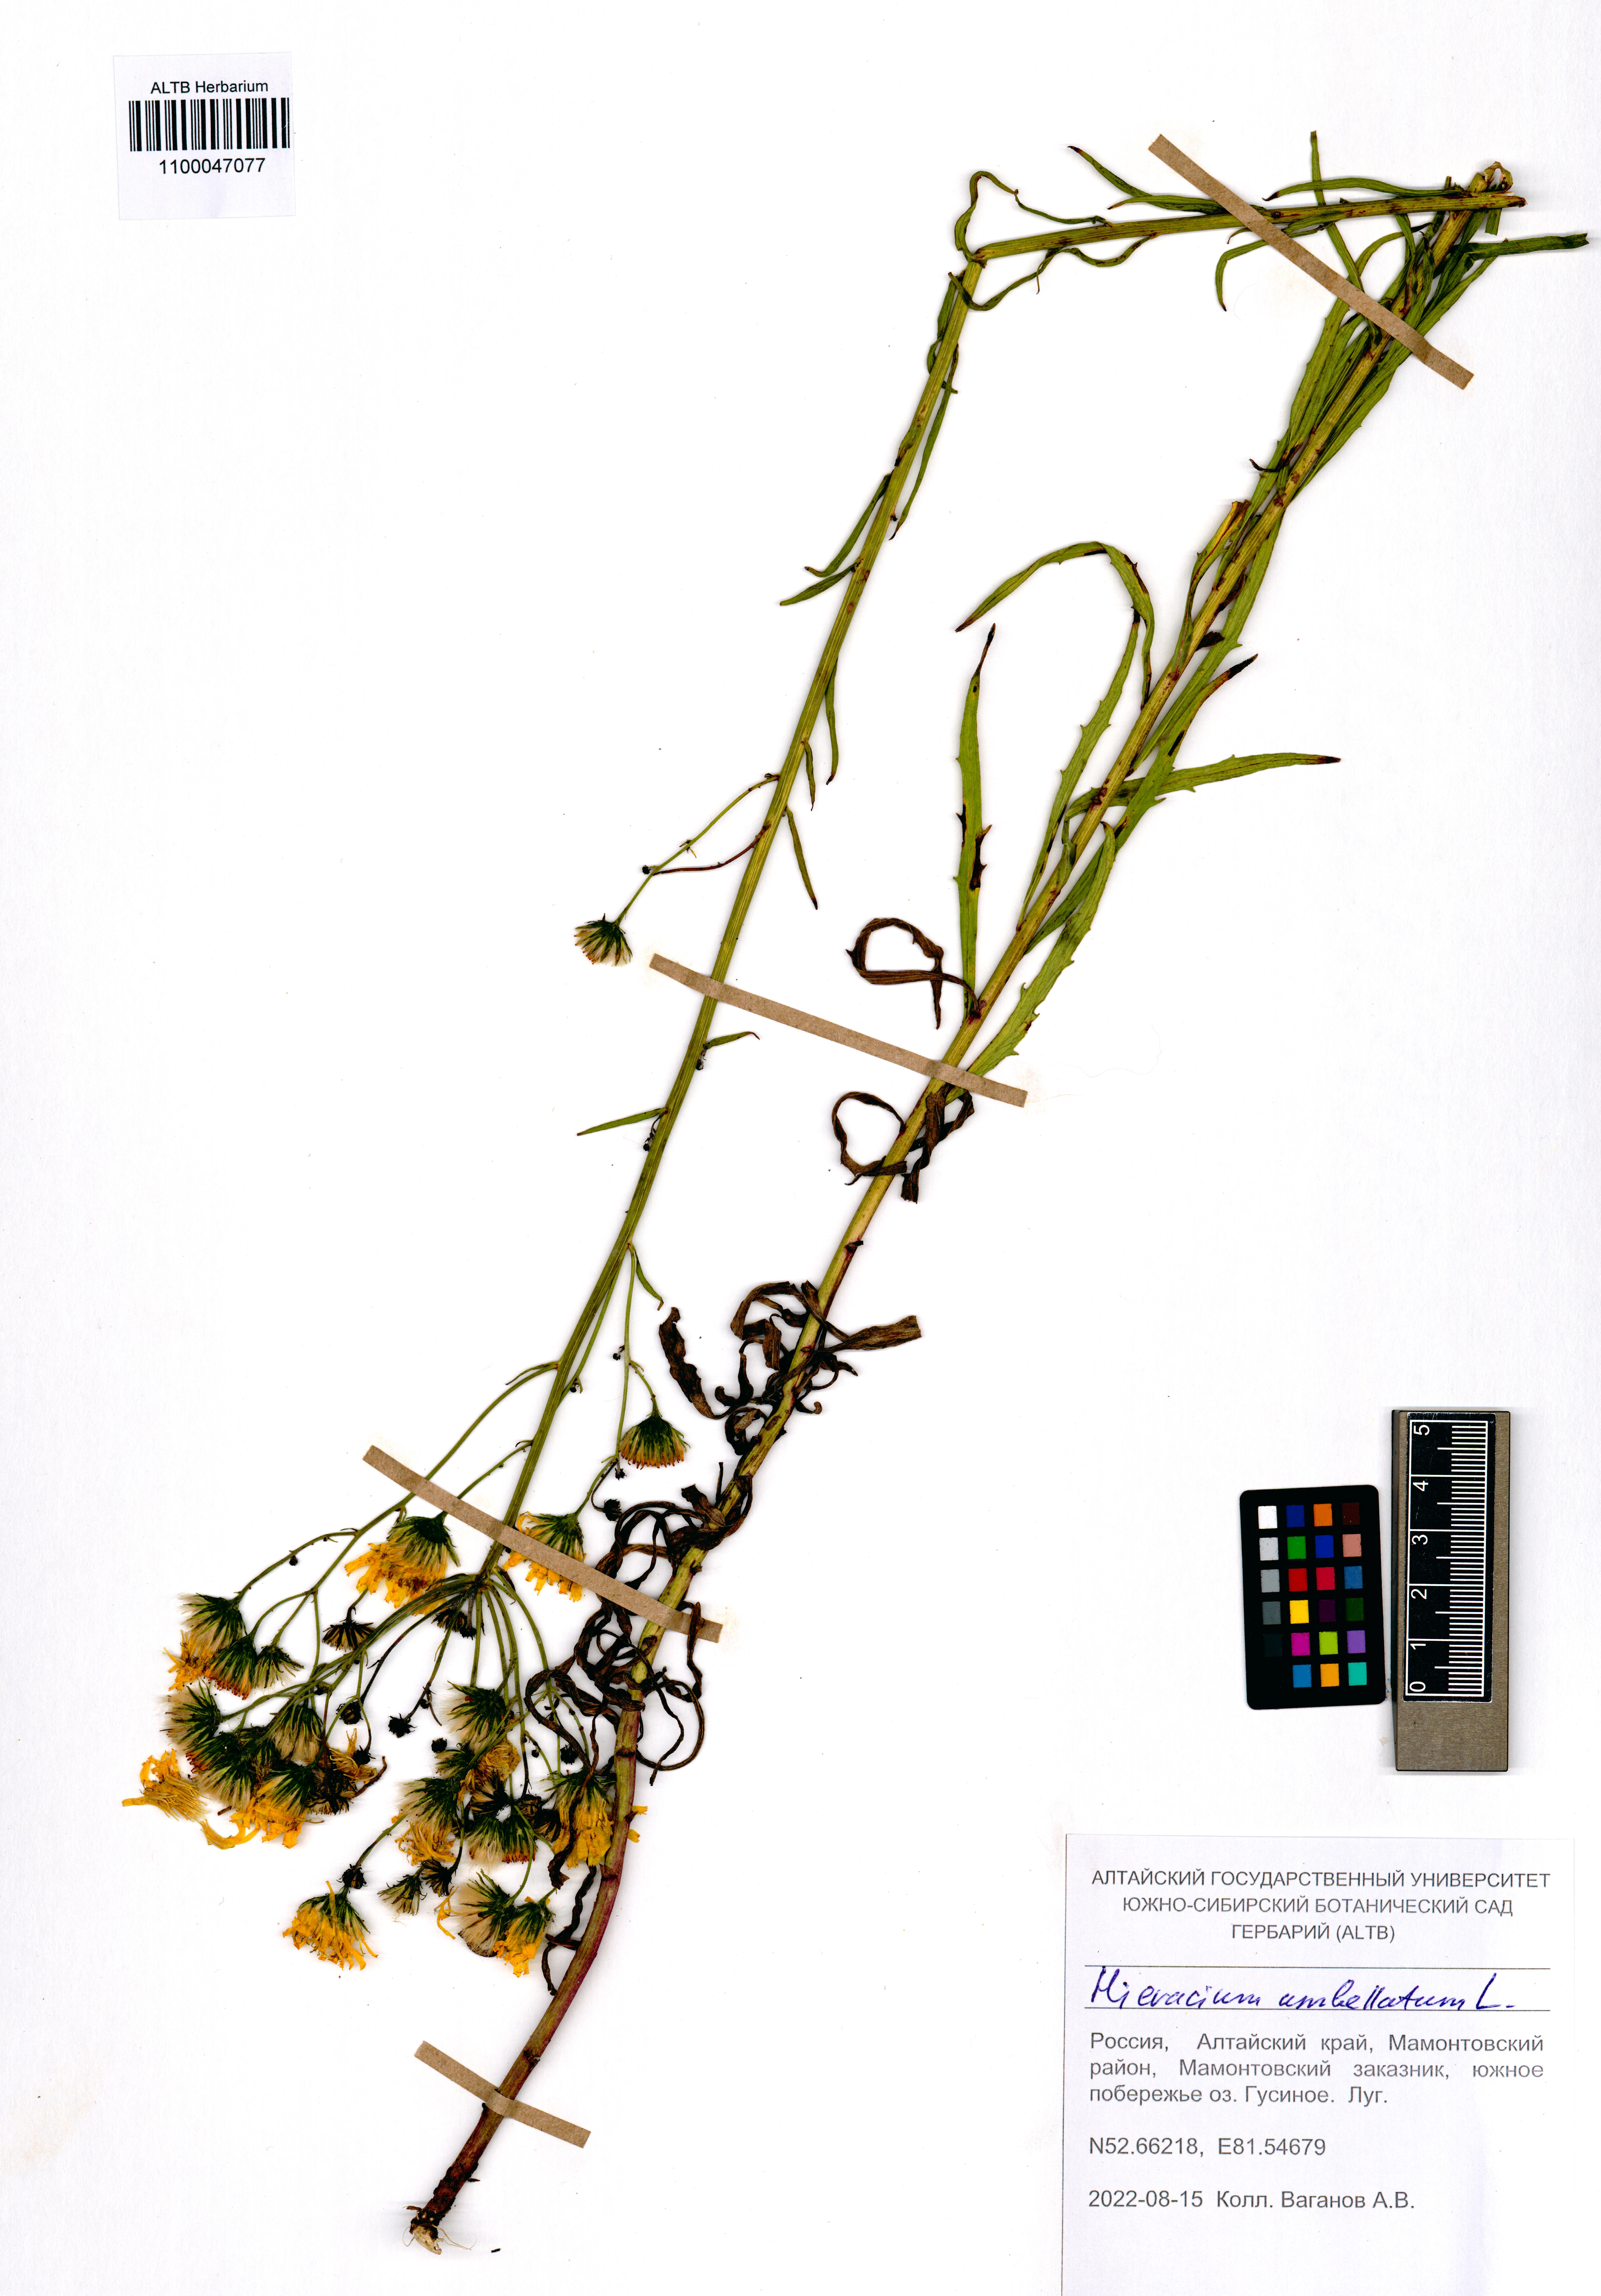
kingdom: Plantae
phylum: Tracheophyta
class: Magnoliopsida
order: Asterales
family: Asteraceae
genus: Hieracium
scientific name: Hieracium umbellatum
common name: Northern hawkweed
